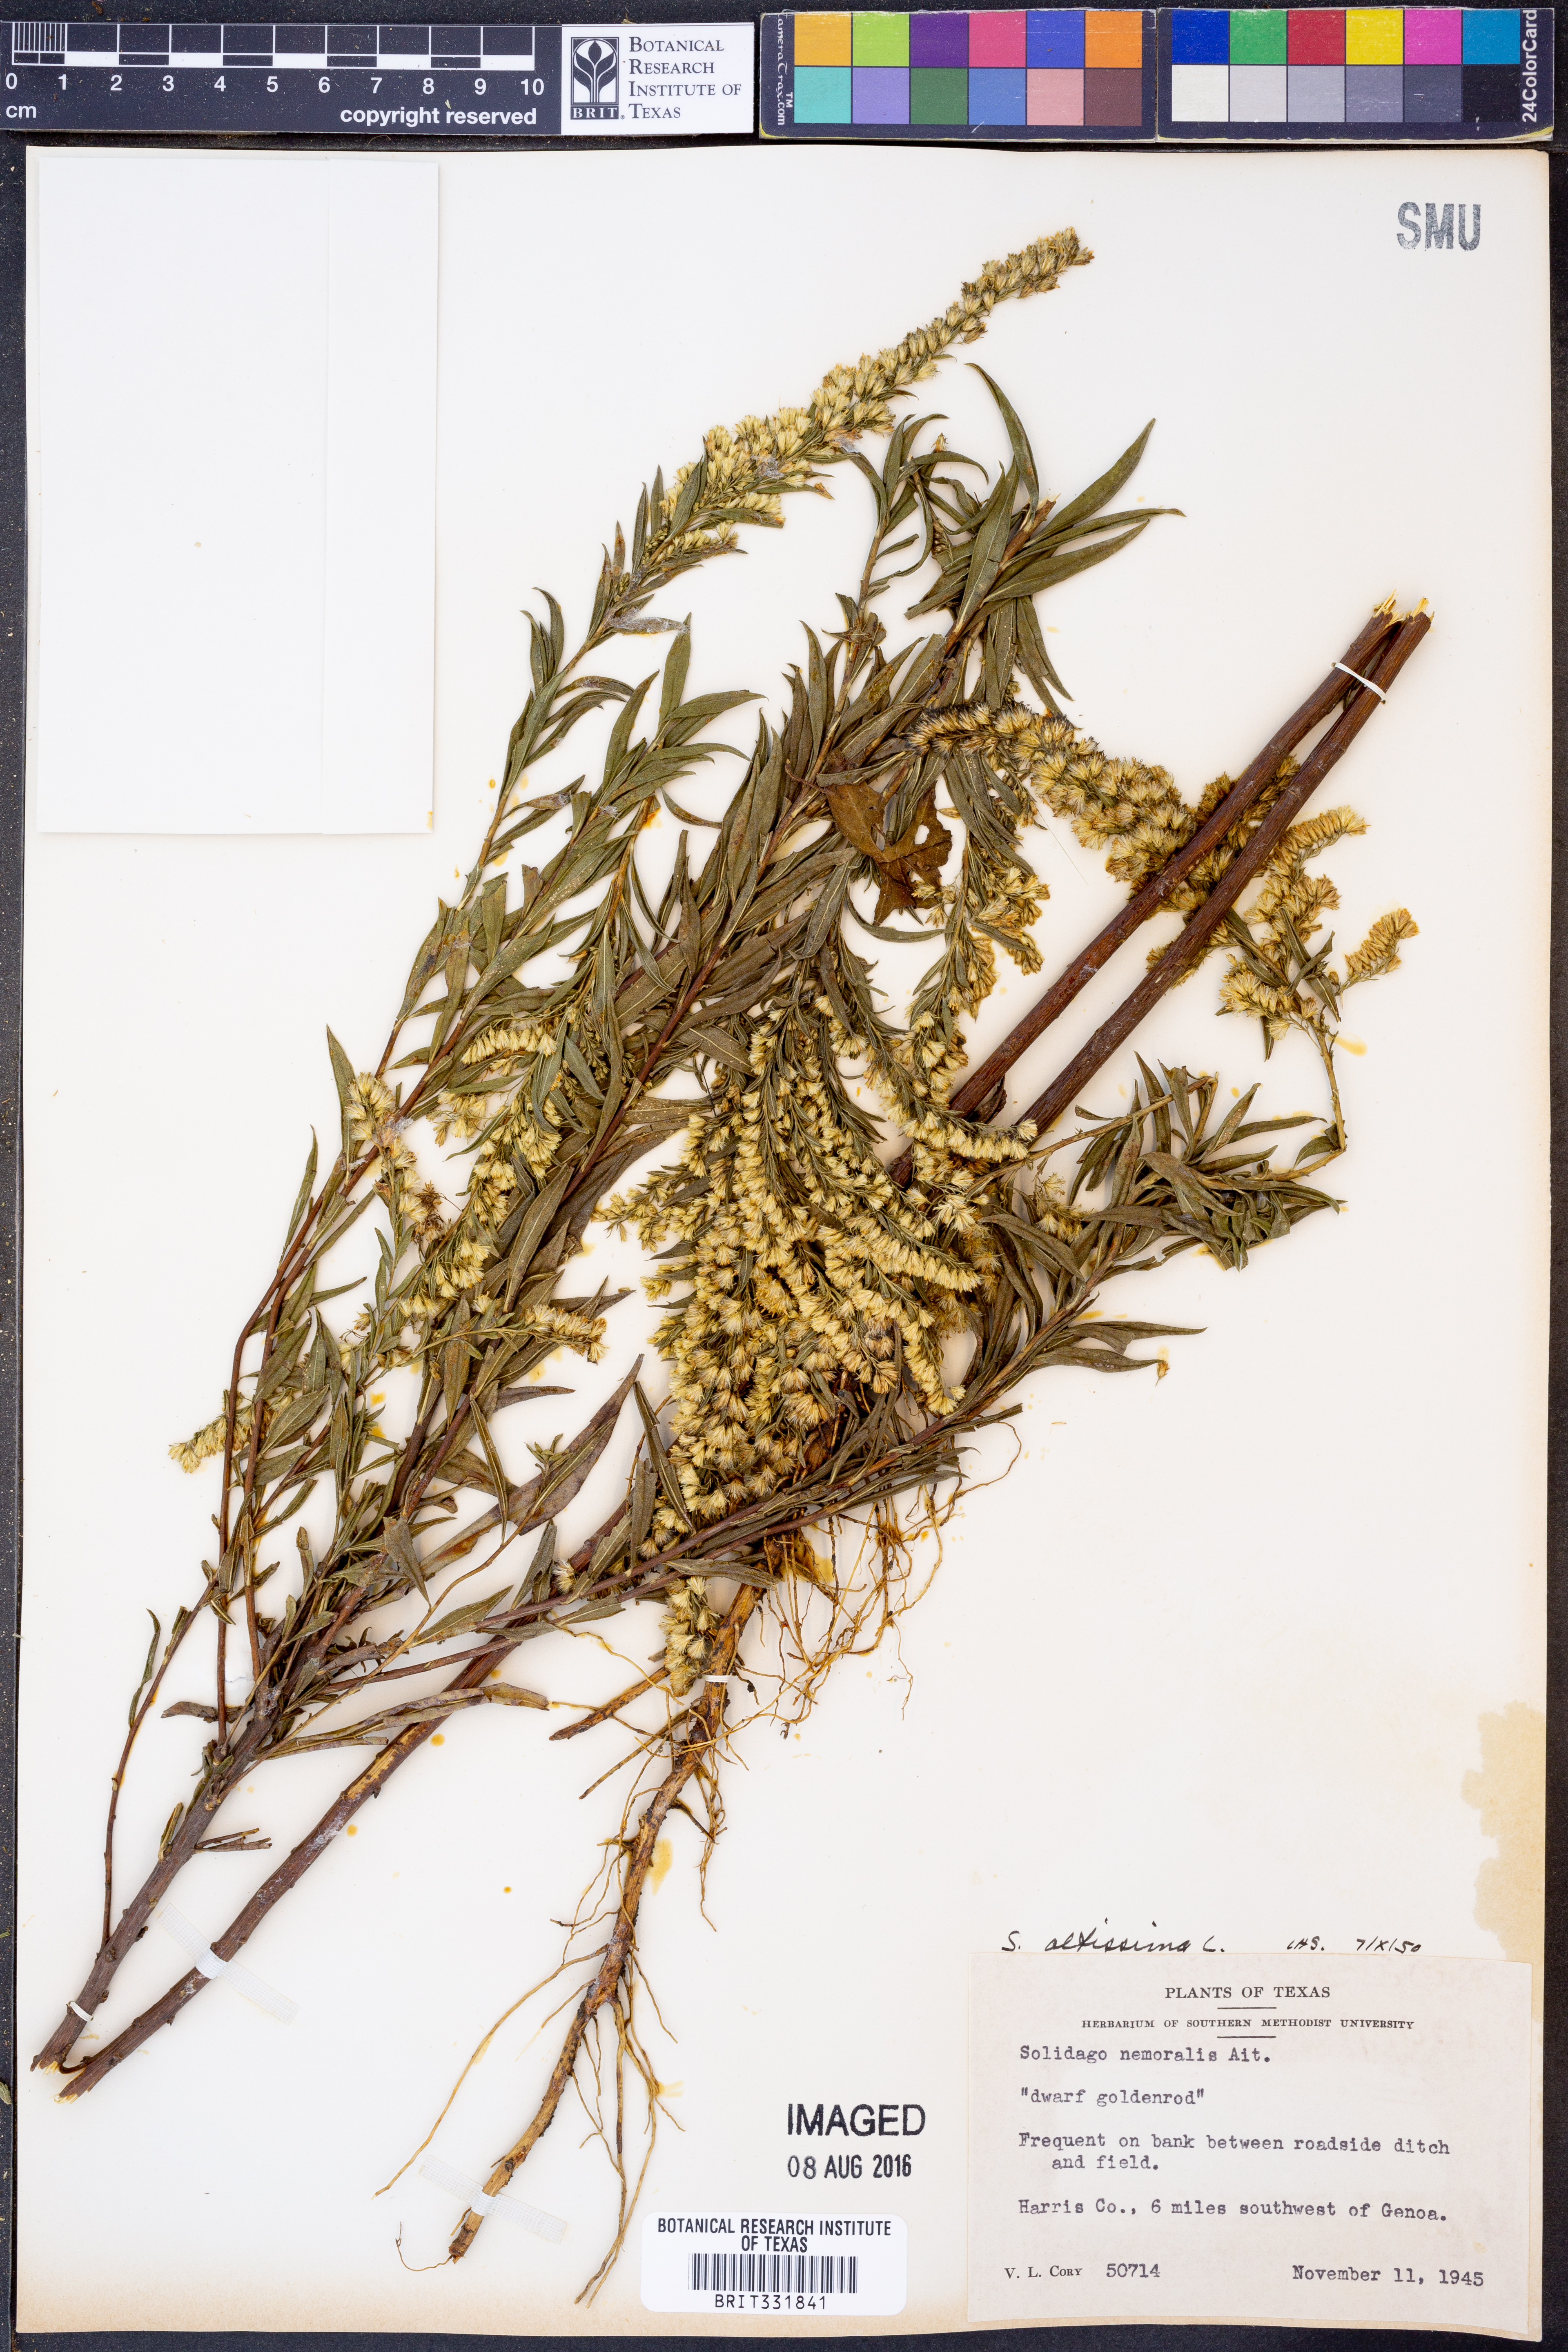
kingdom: Plantae
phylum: Tracheophyta
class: Magnoliopsida
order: Asterales
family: Asteraceae
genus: Solidago
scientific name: Solidago altissima
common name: Late goldenrod
